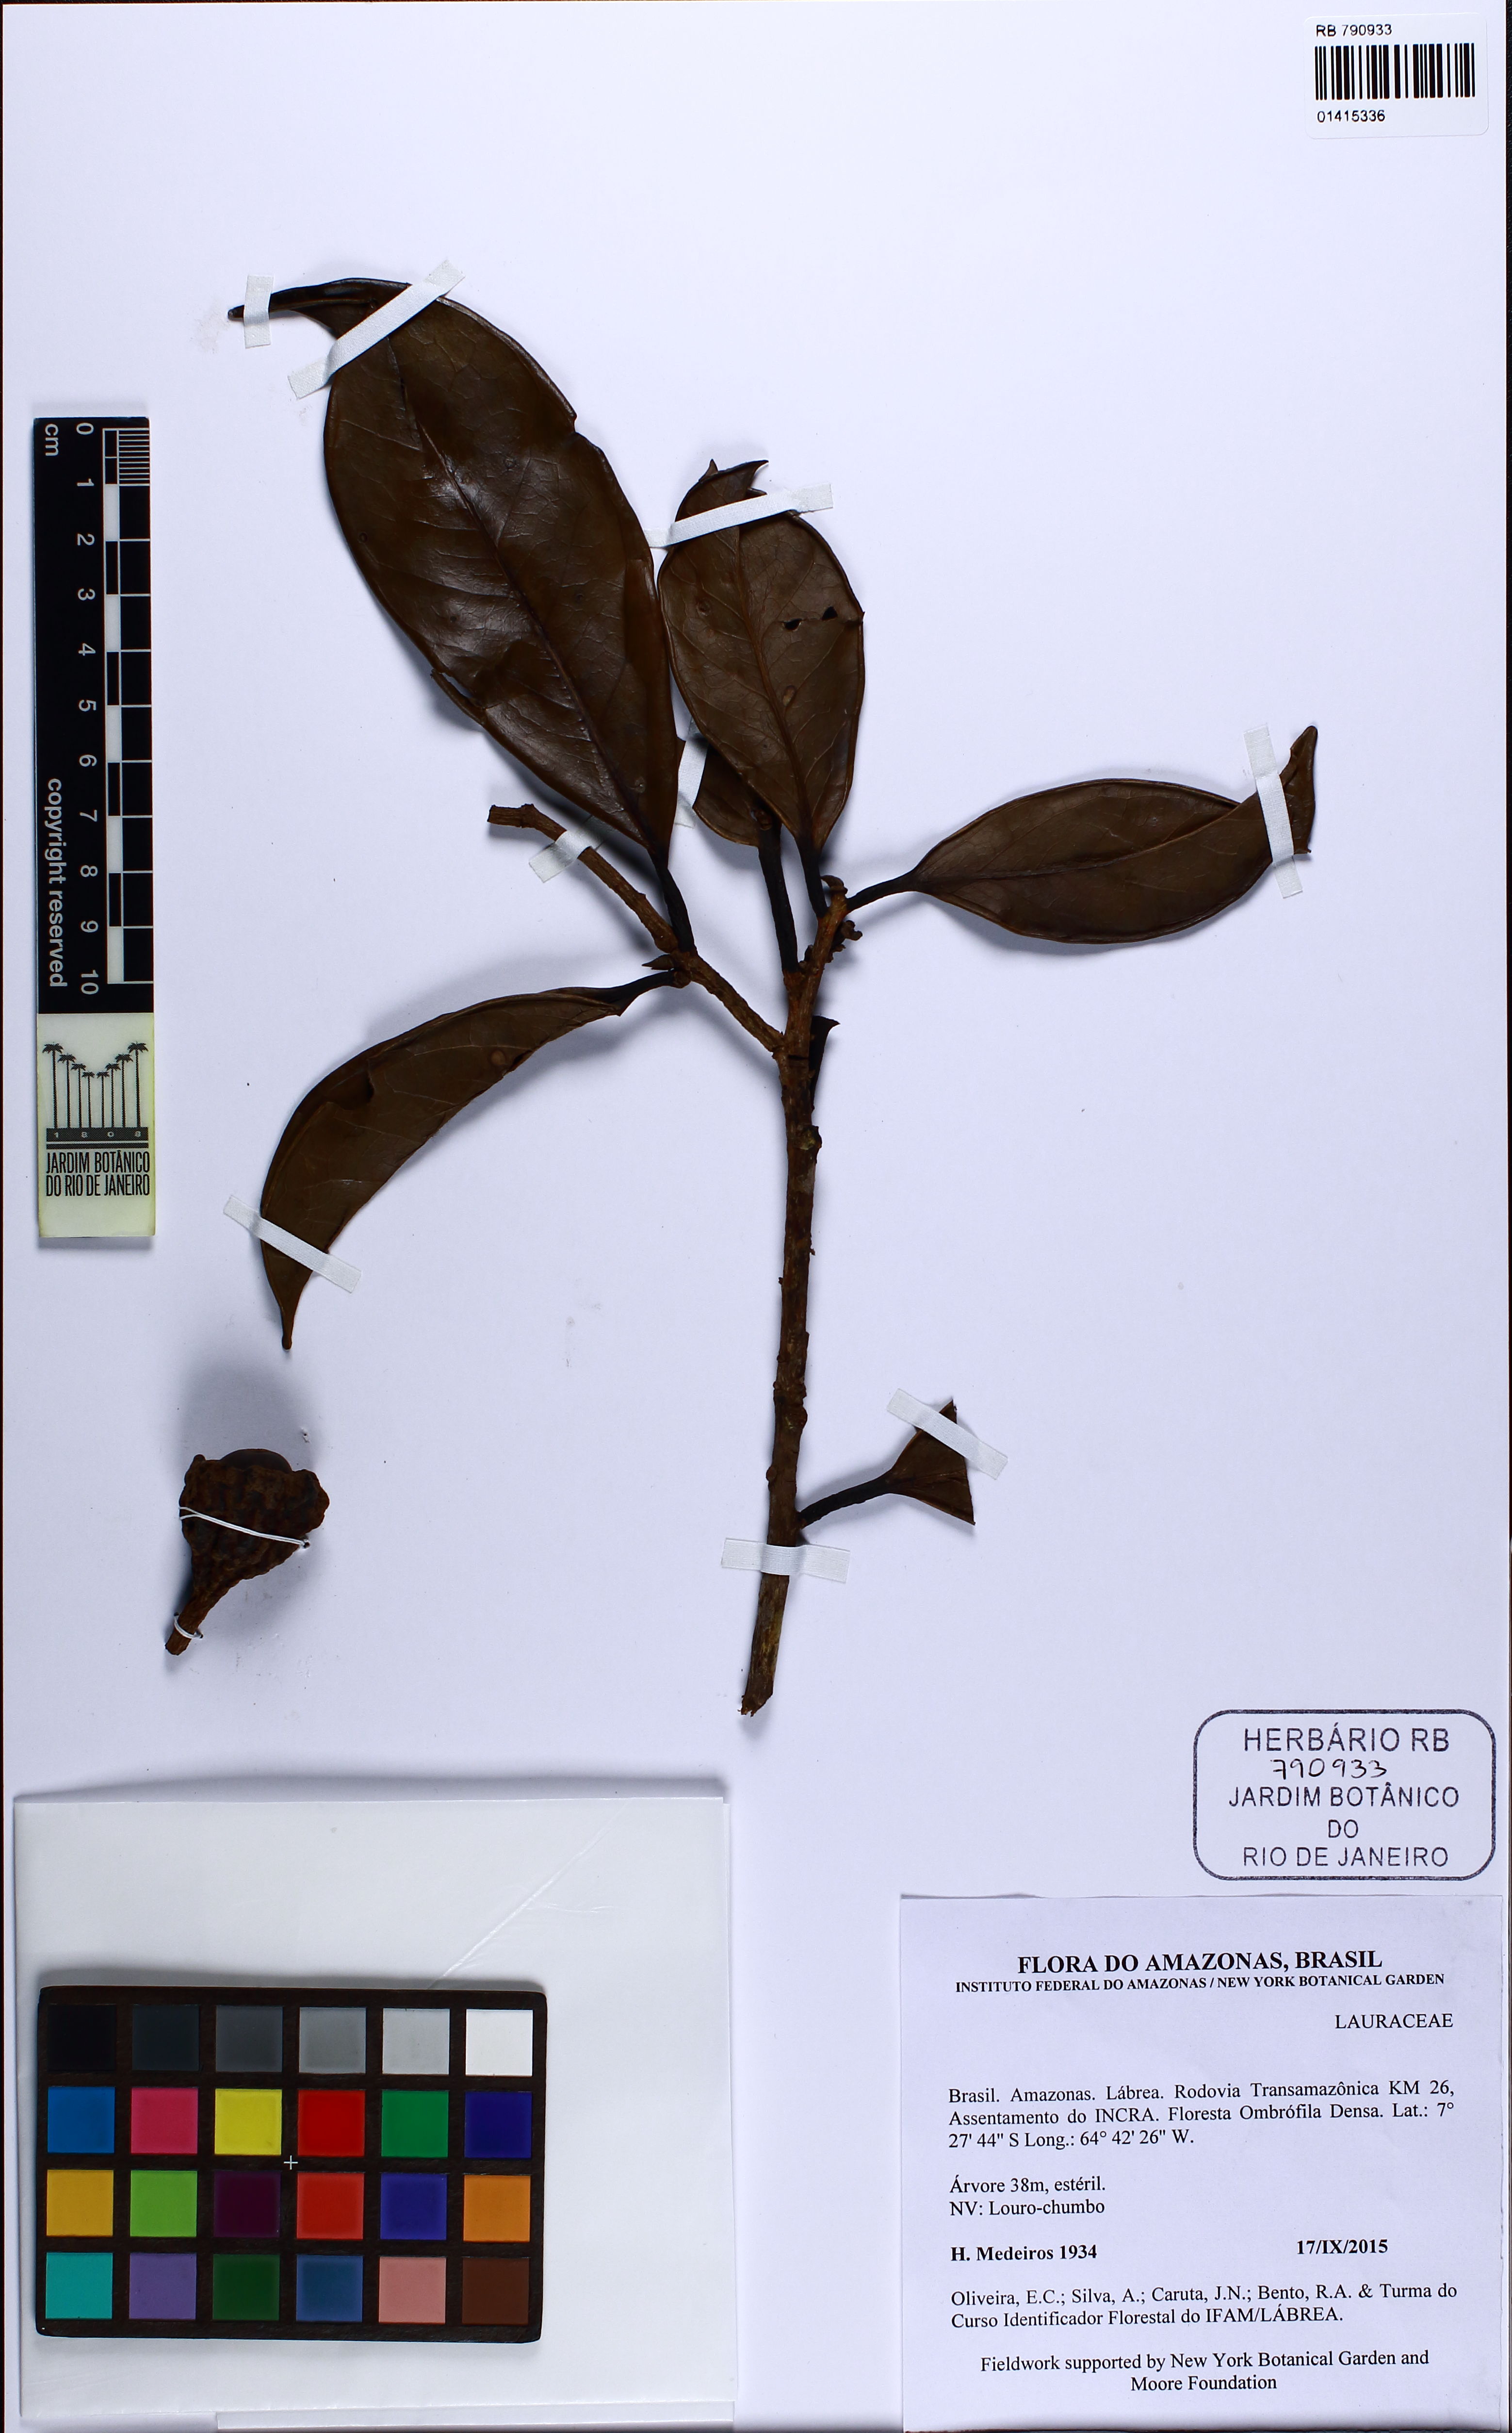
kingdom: Plantae
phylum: Tracheophyta
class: Magnoliopsida
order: Laurales
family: Lauraceae
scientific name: Lauraceae
